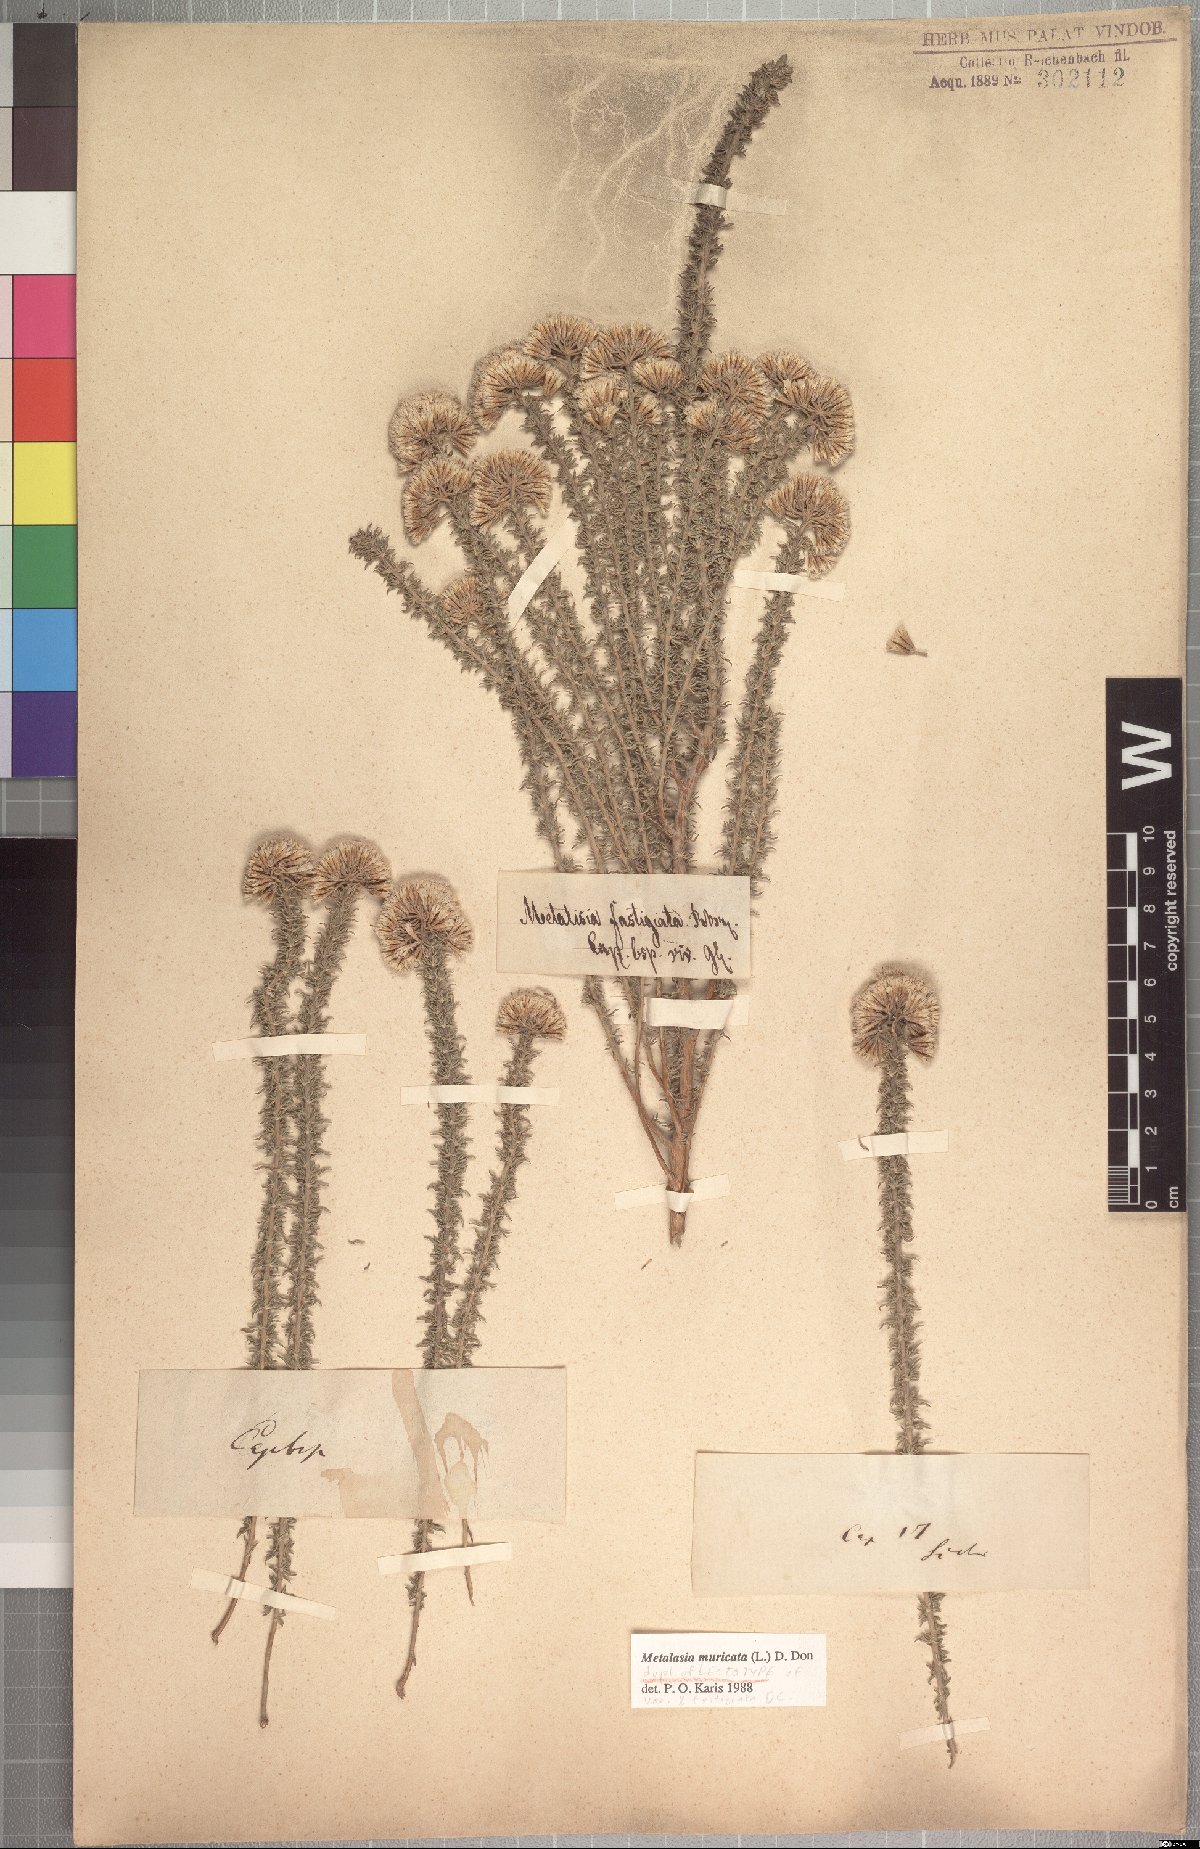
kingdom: Plantae
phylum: Tracheophyta
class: Magnoliopsida
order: Asterales
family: Asteraceae
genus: Metalasia
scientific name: Metalasia muricata
